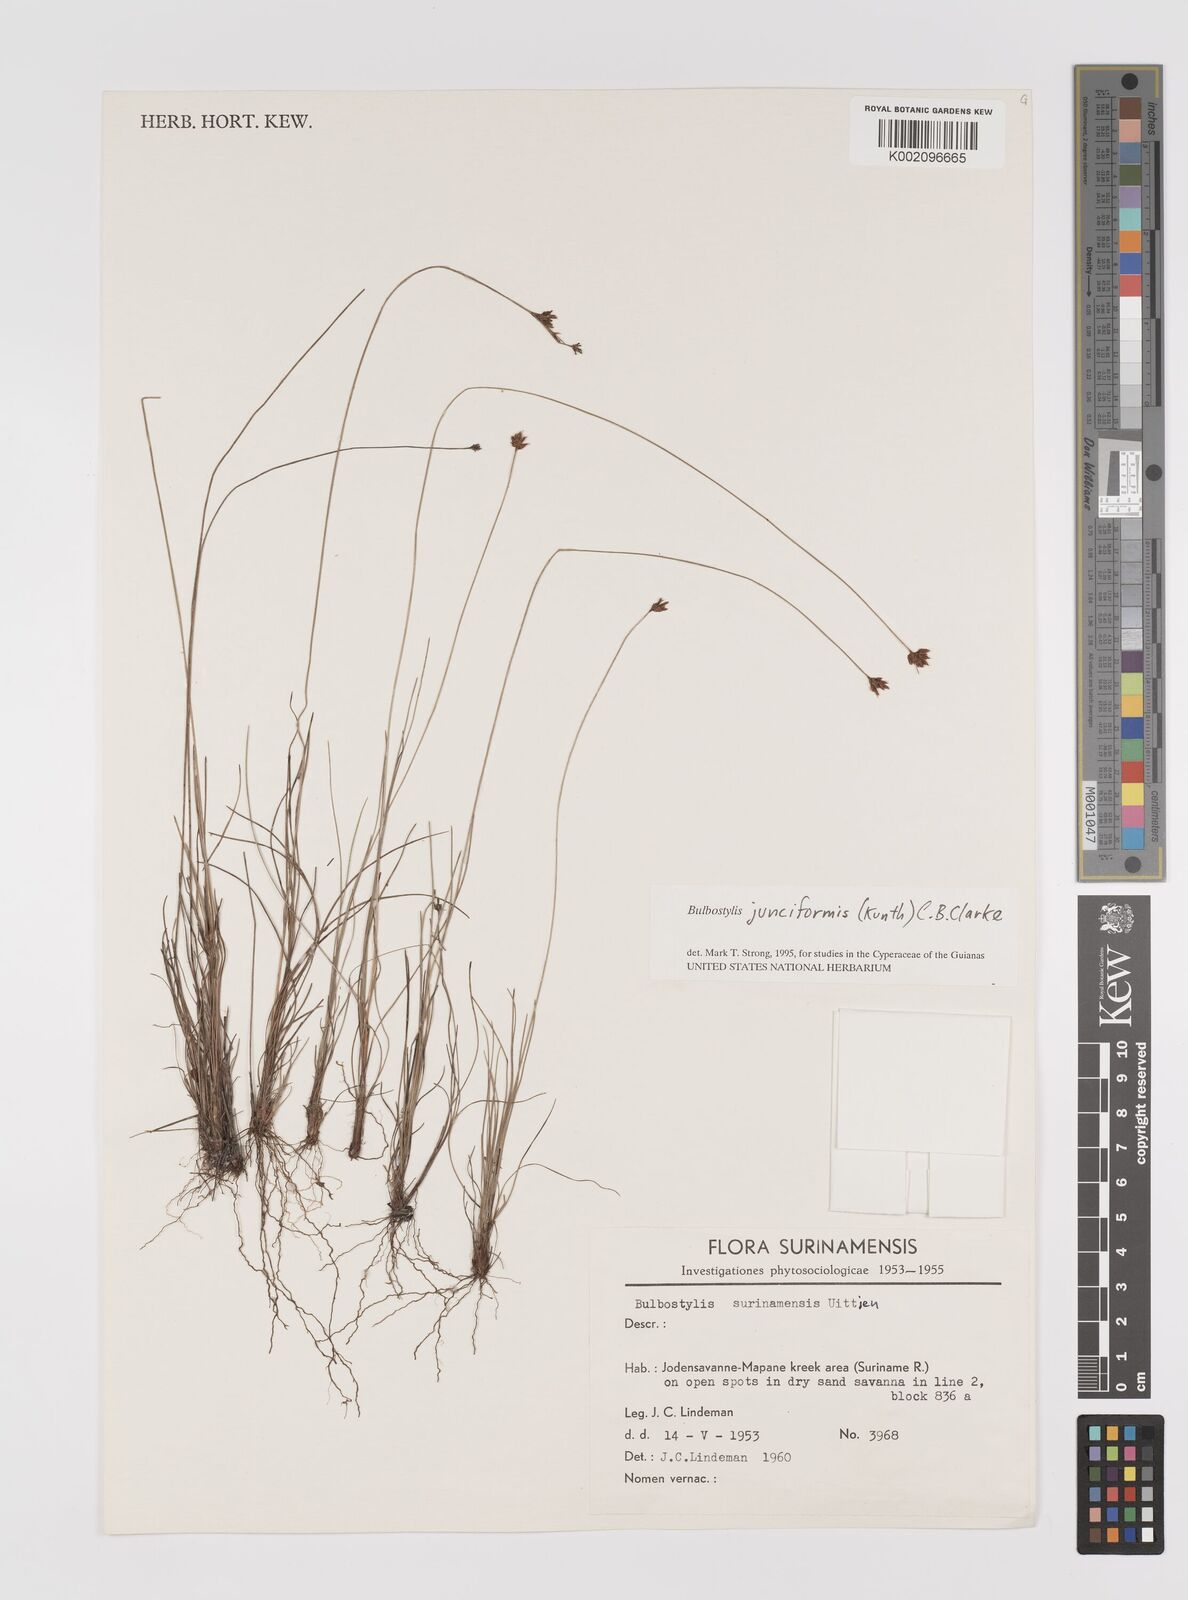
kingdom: Plantae
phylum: Tracheophyta
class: Liliopsida
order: Poales
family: Cyperaceae
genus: Bulbostylis
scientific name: Bulbostylis junciformis
